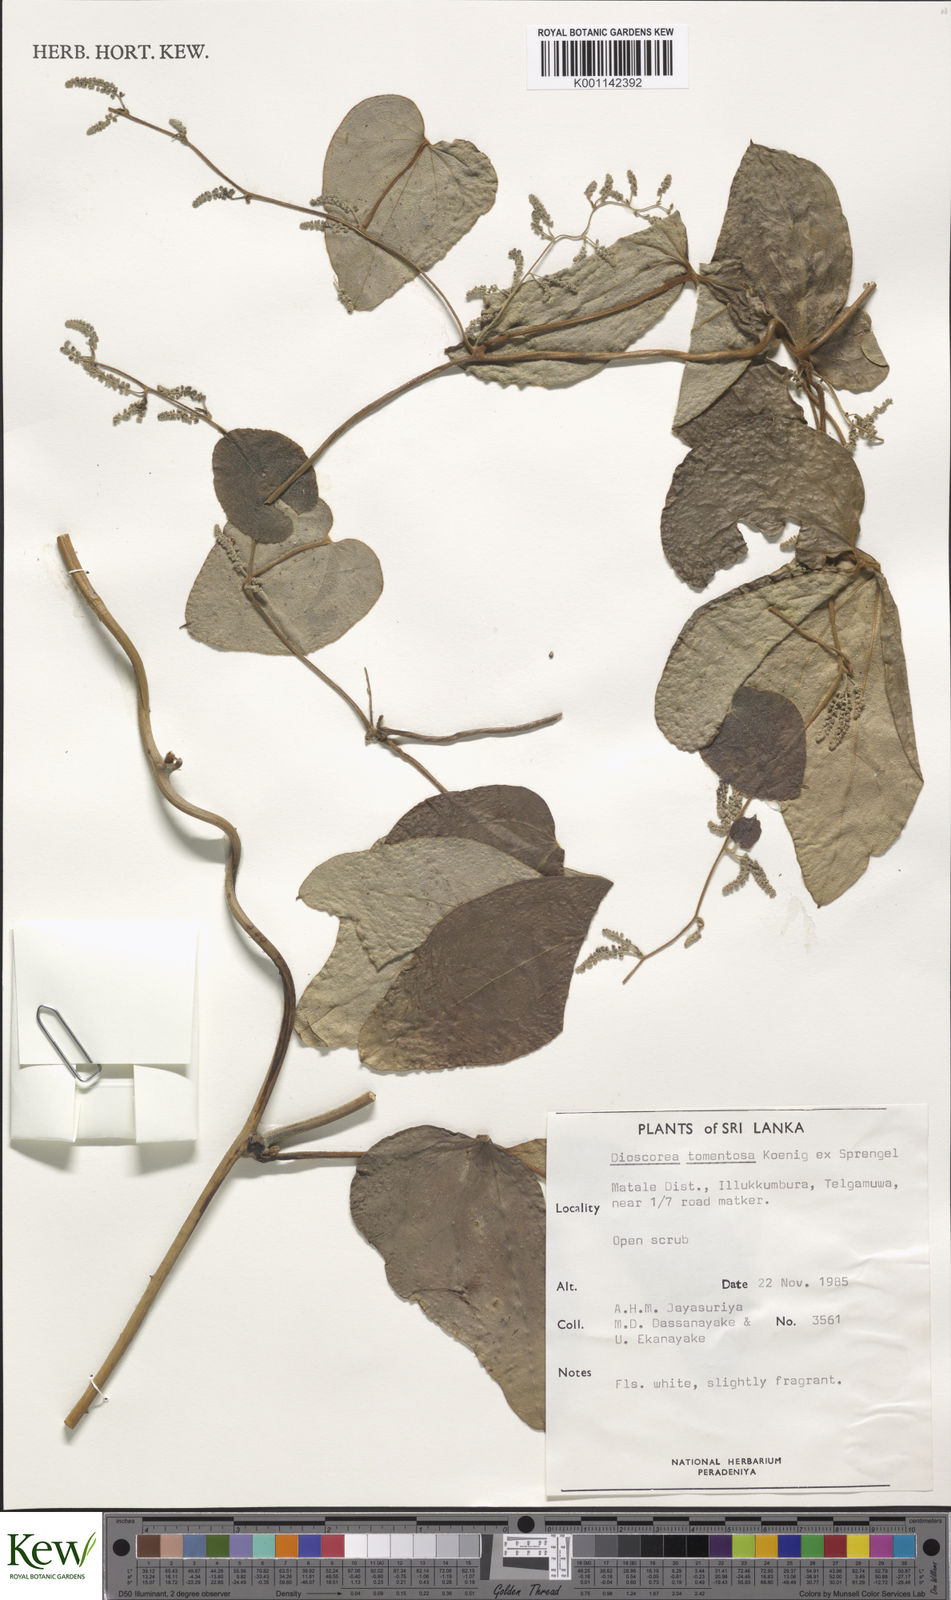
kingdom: Plantae
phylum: Tracheophyta
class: Liliopsida
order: Dioscoreales
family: Dioscoreaceae
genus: Dioscorea
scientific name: Dioscorea
